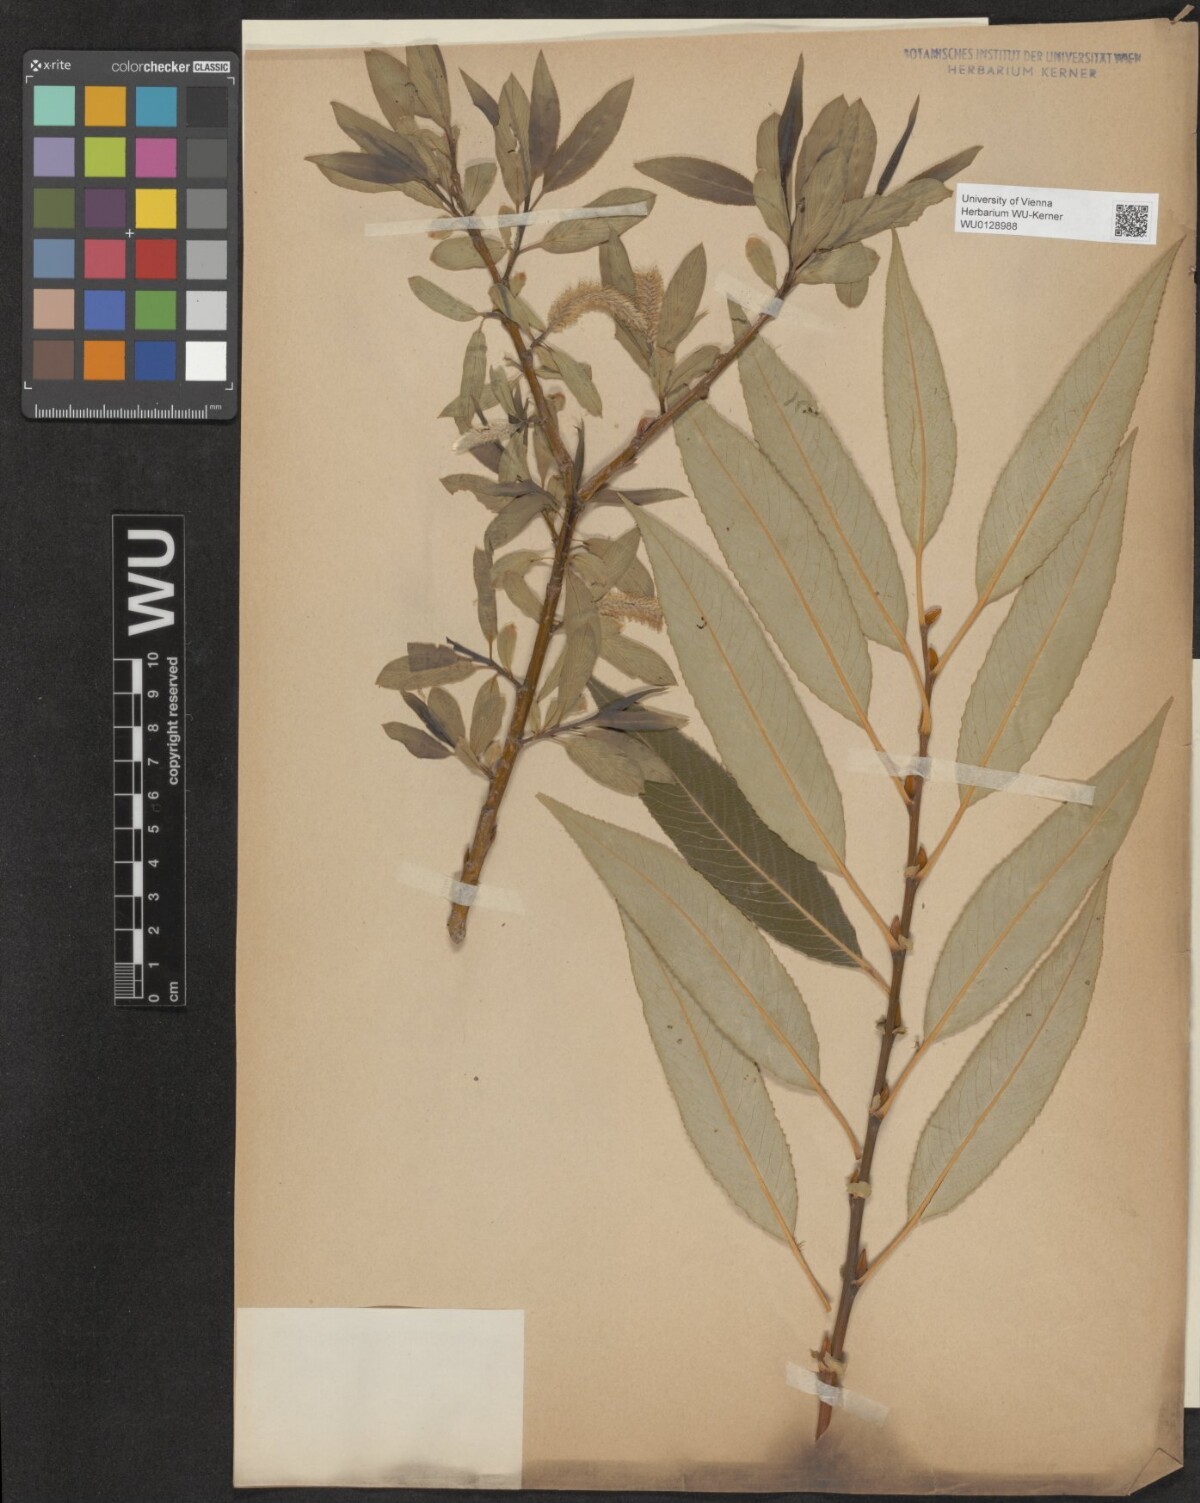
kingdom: Plantae
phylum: Tracheophyta
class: Magnoliopsida
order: Malpighiales
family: Salicaceae
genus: Salix
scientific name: Salix fragilis
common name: Crack willow
